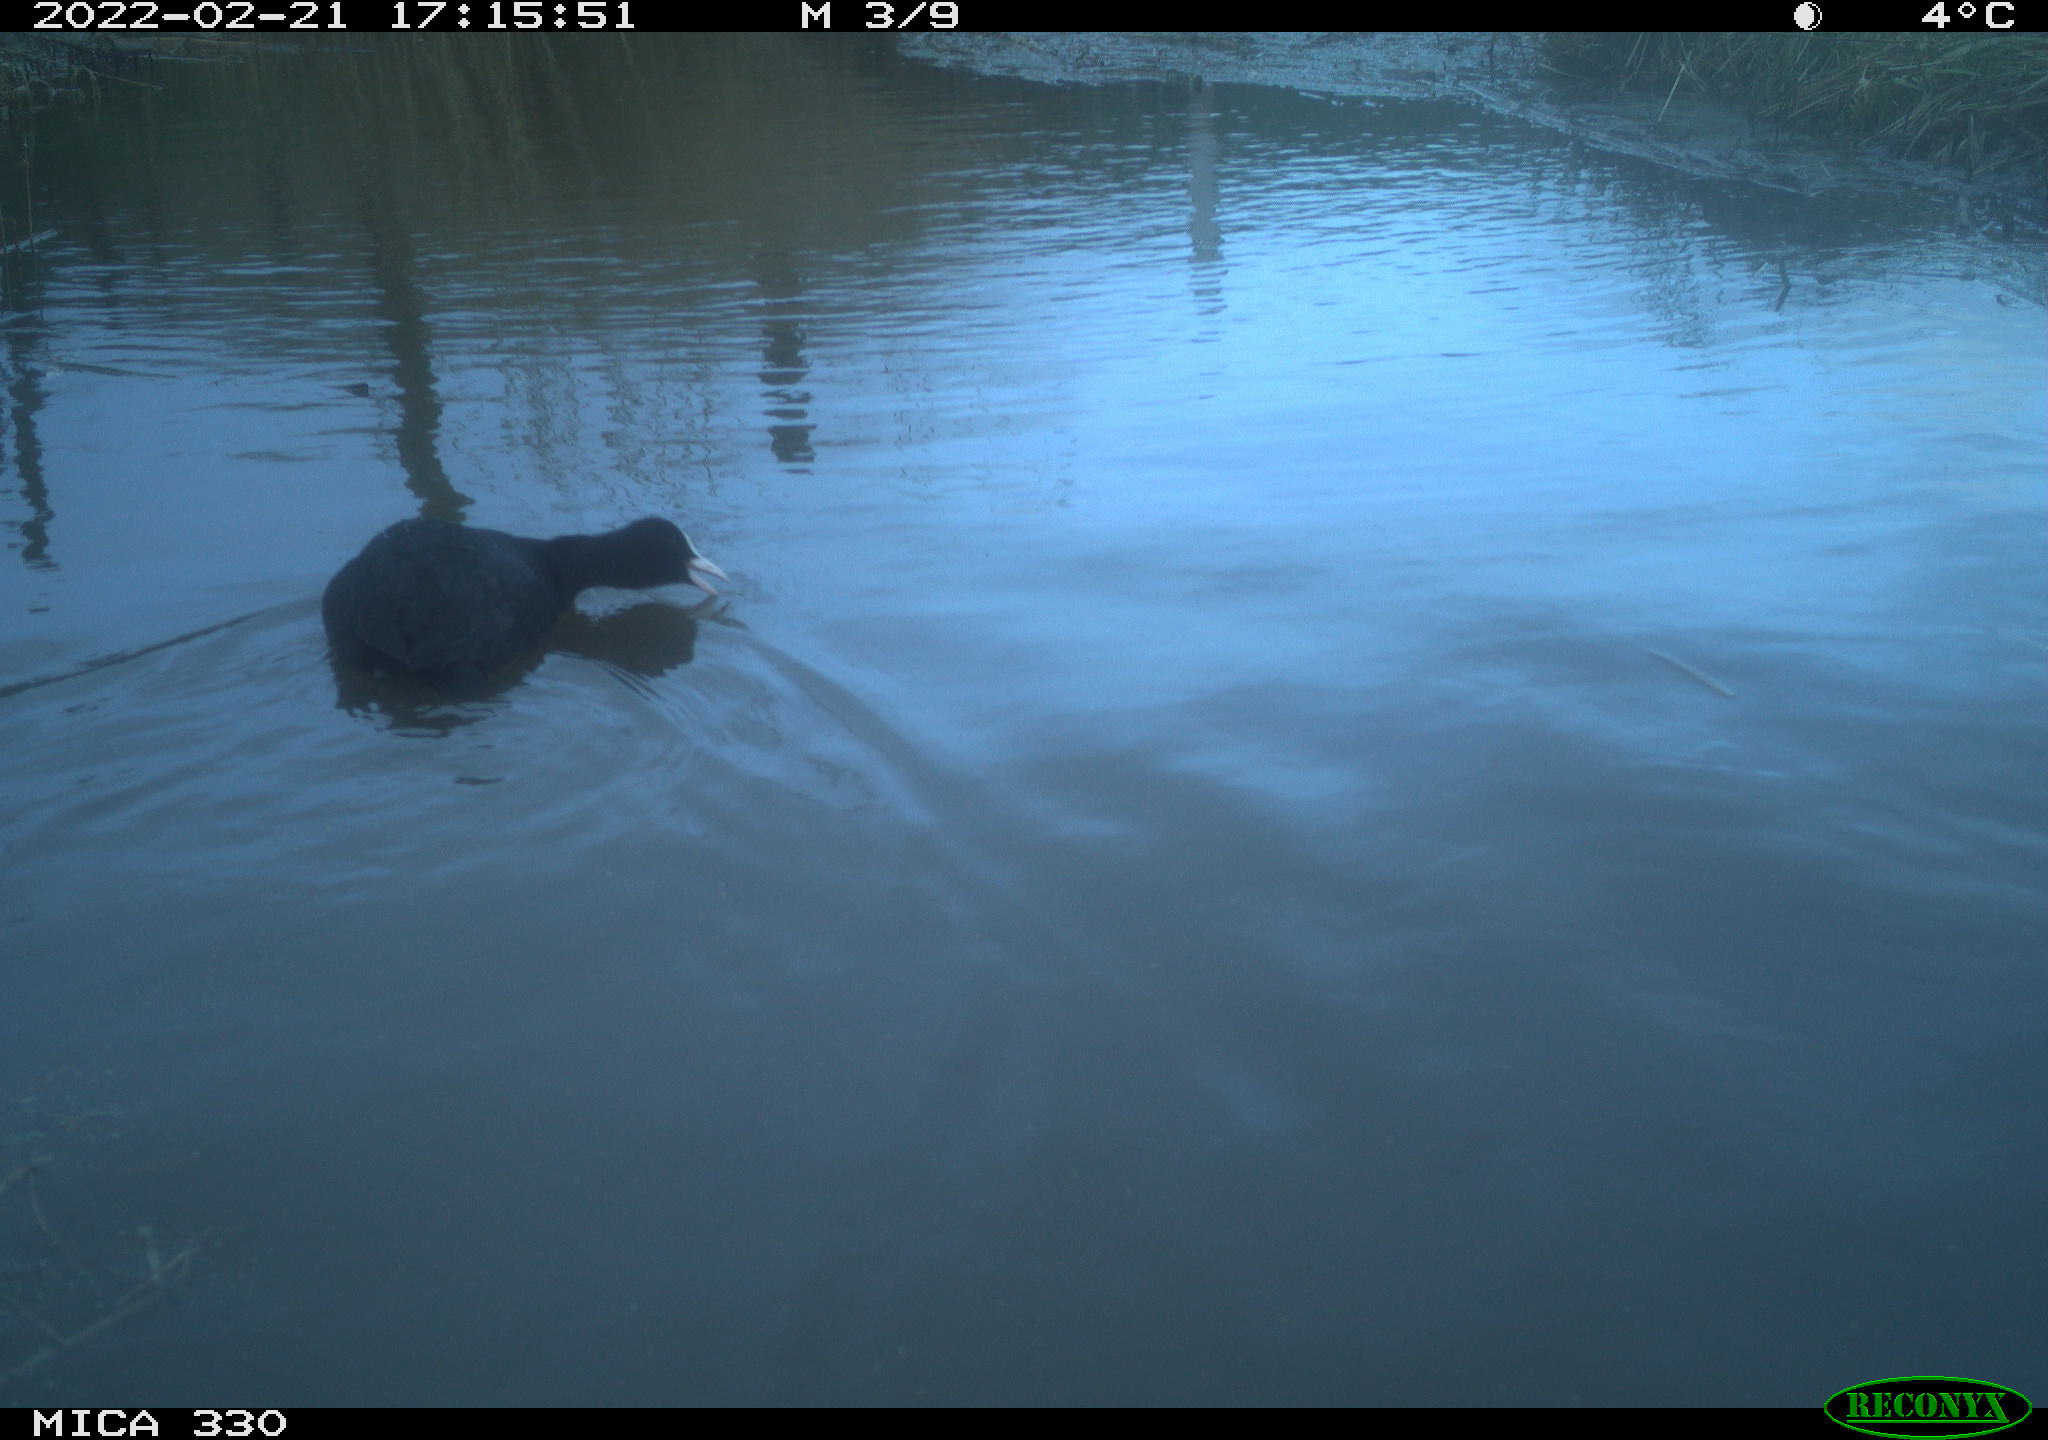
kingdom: Animalia
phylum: Chordata
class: Aves
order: Gruiformes
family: Rallidae
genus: Fulica
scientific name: Fulica atra
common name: Eurasian coot
